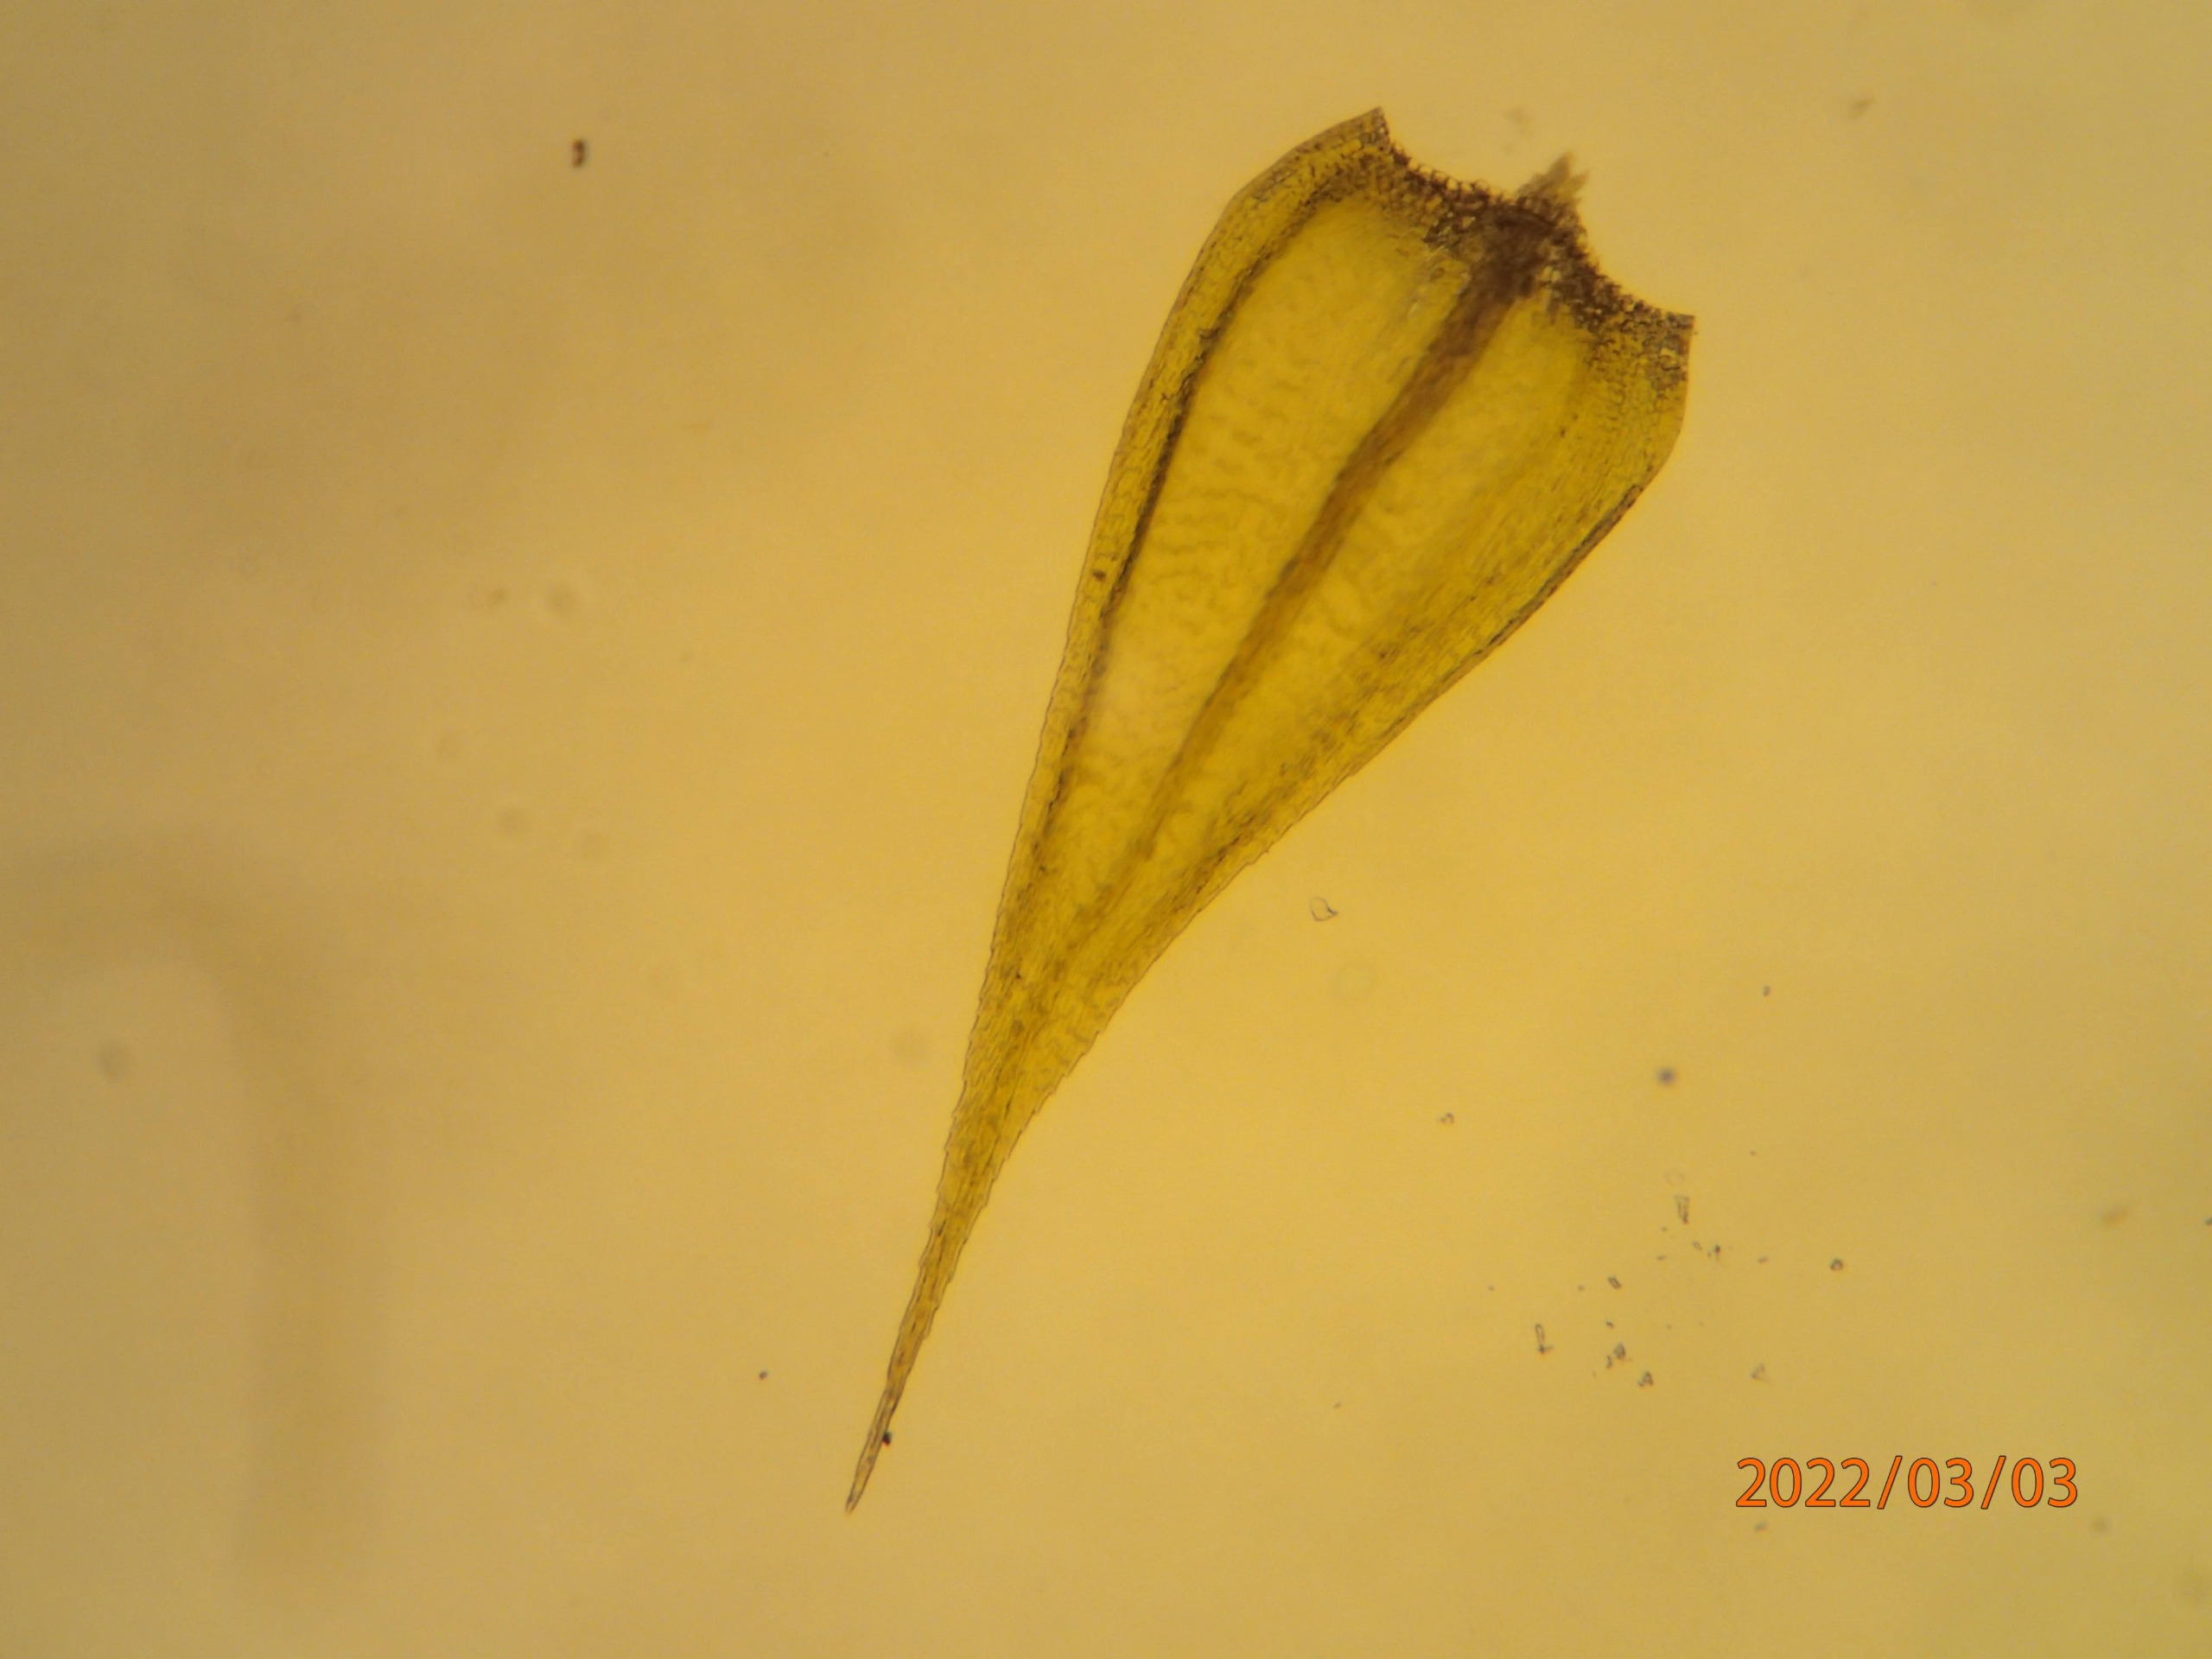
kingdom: Plantae
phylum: Bryophyta
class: Bryopsida
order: Hypnales
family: Brachytheciaceae
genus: Sciuro-hypnum
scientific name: Sciuro-hypnum populeum
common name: Park-kortkapsel
